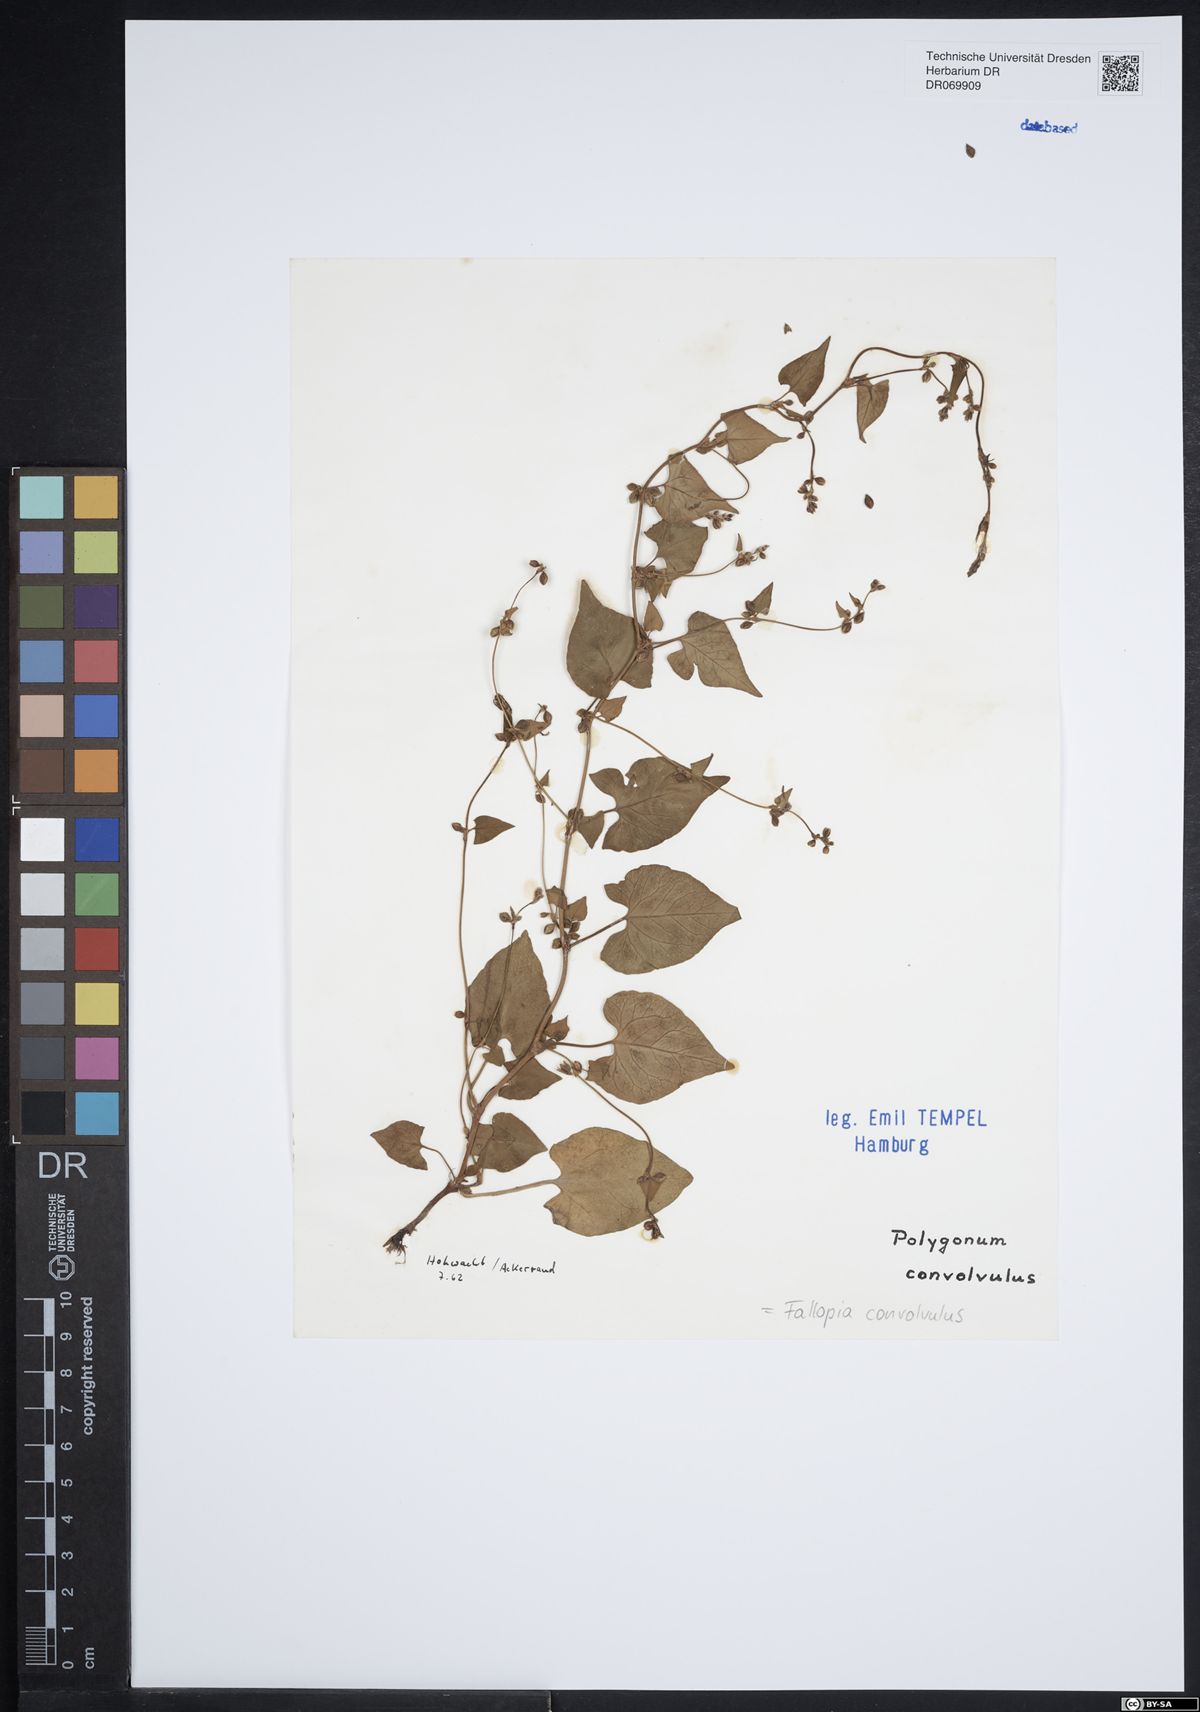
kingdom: Plantae
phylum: Tracheophyta
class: Magnoliopsida
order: Caryophyllales
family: Polygonaceae
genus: Fallopia
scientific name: Fallopia convolvulus
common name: Black bindweed
